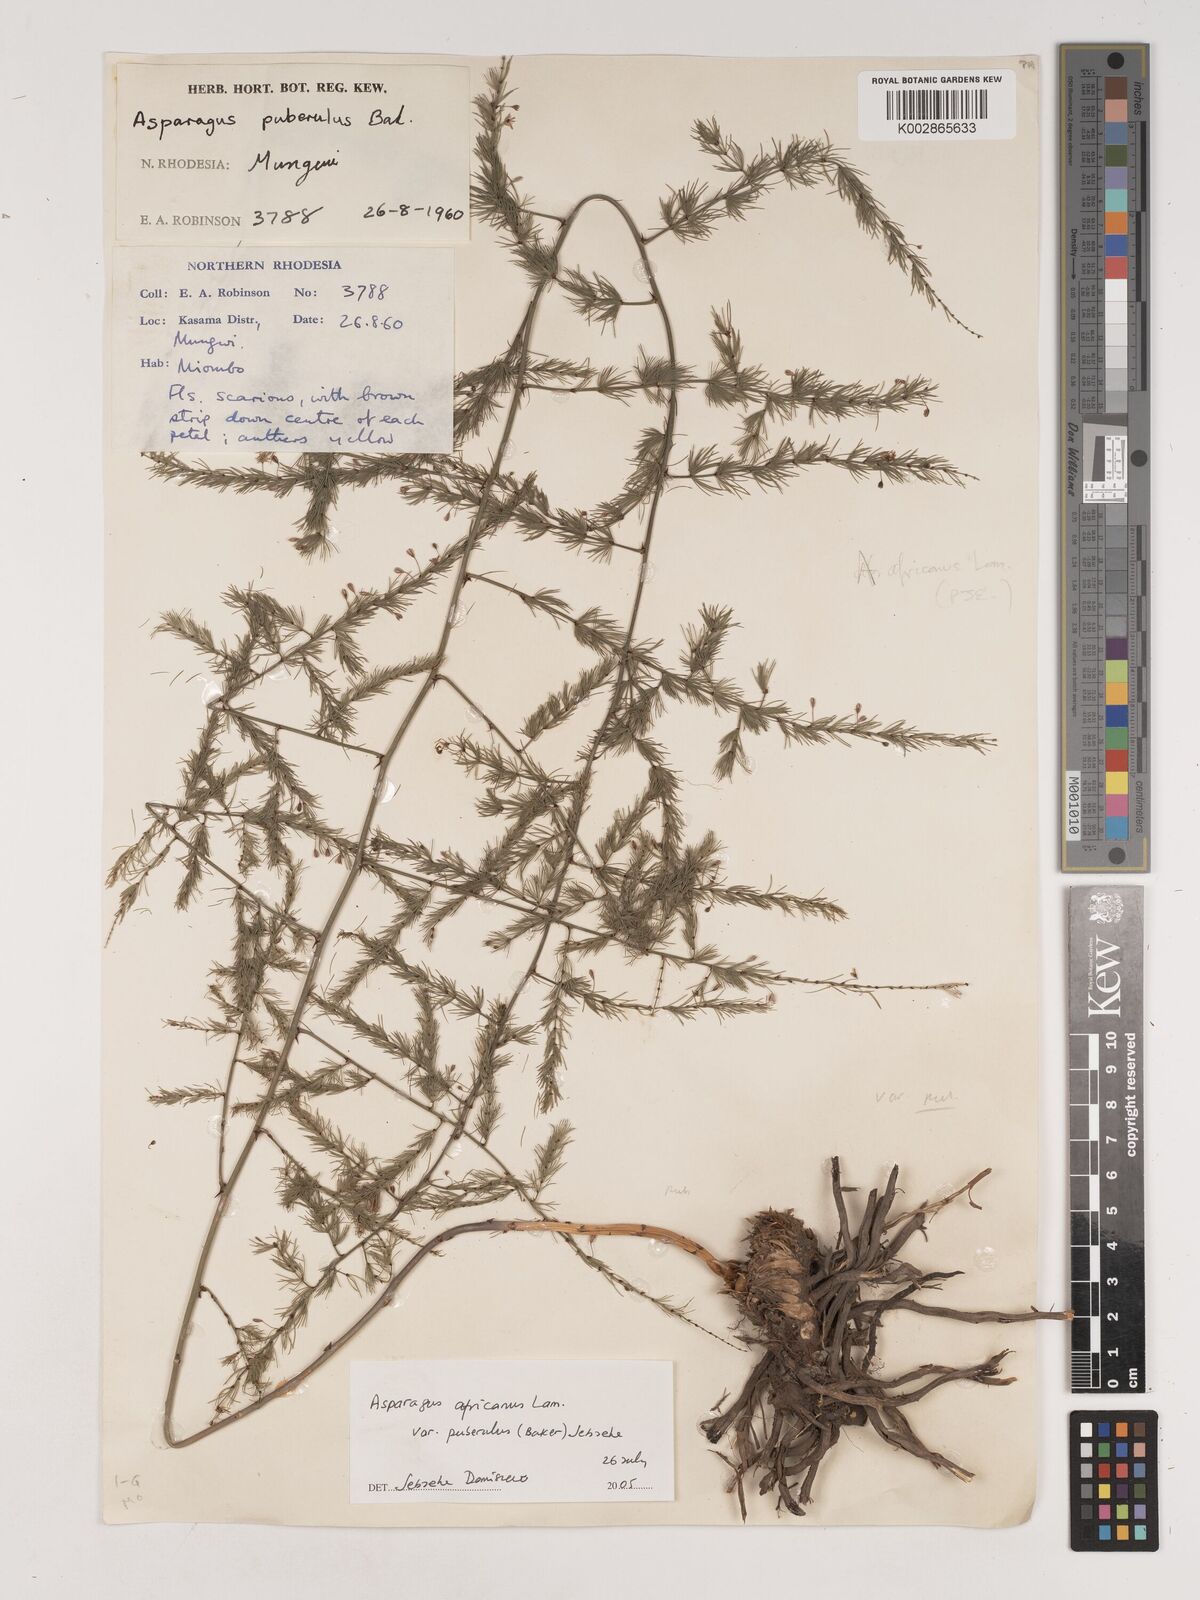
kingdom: Plantae
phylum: Tracheophyta
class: Liliopsida
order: Asparagales
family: Asparagaceae
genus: Asparagus
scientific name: Asparagus africanus
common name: Asparagus-fern
